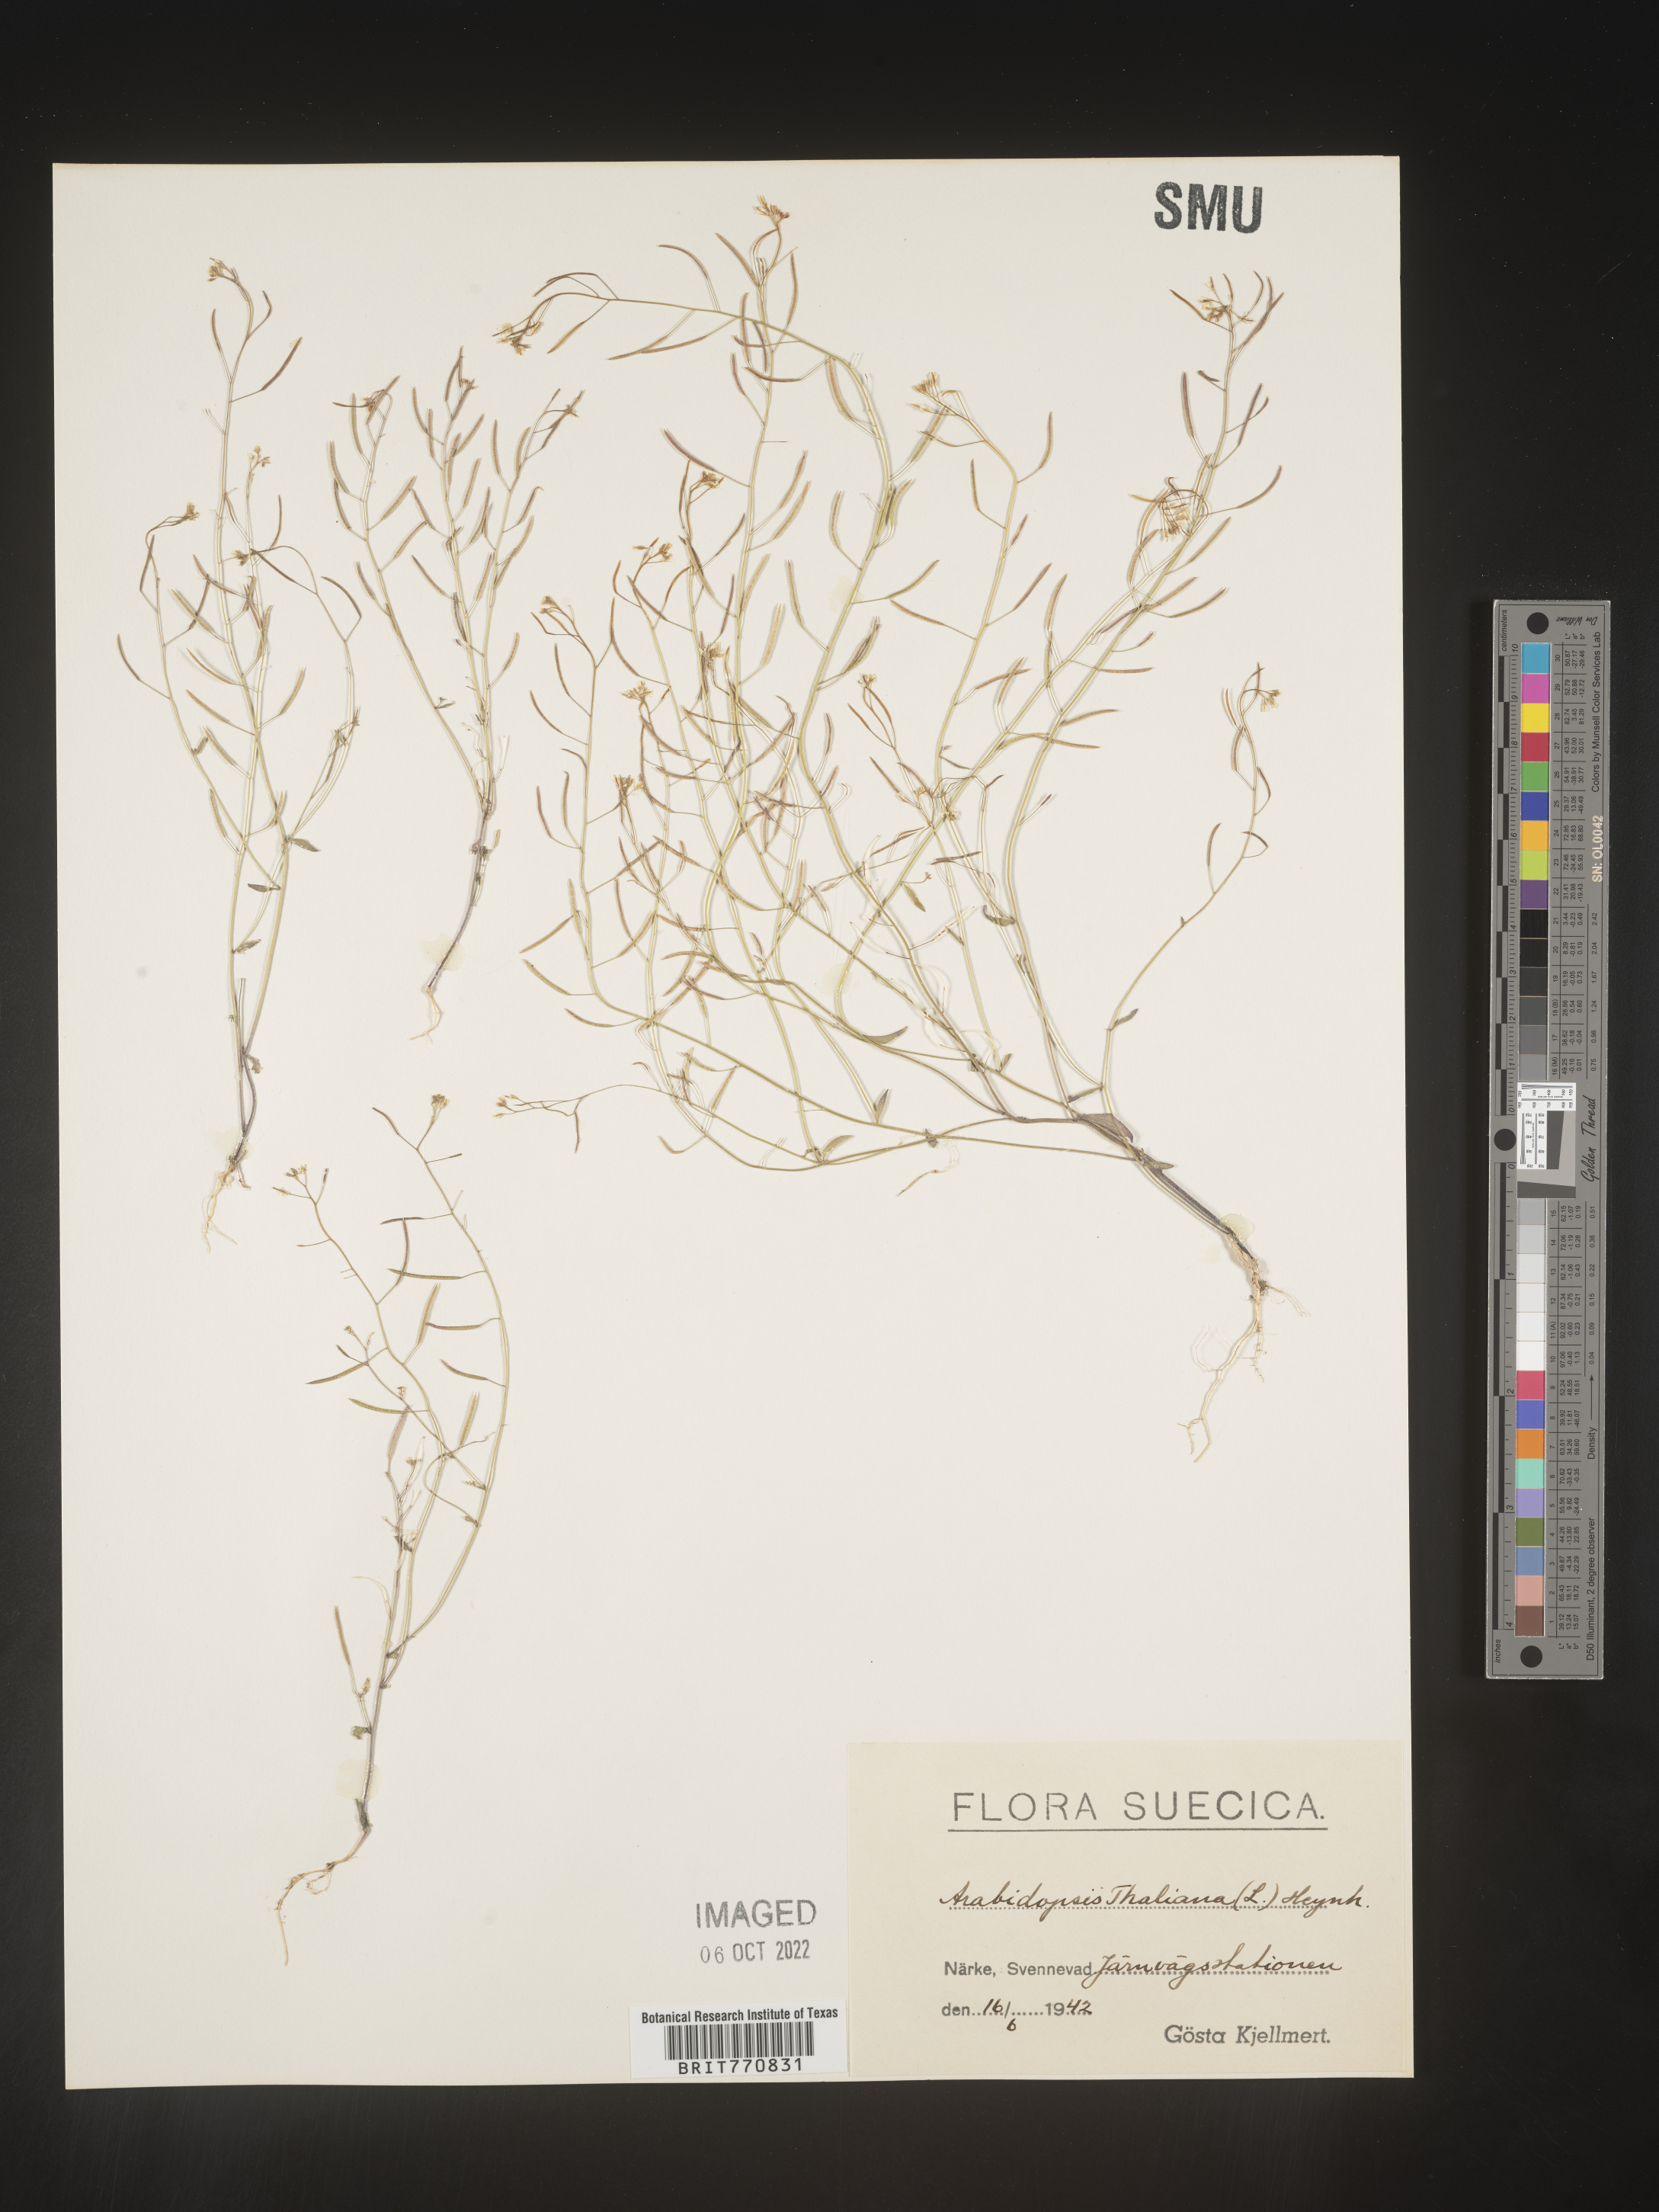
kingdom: Plantae
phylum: Tracheophyta
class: Magnoliopsida
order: Brassicales
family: Brassicaceae
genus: Arabidopsis
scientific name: Arabidopsis
